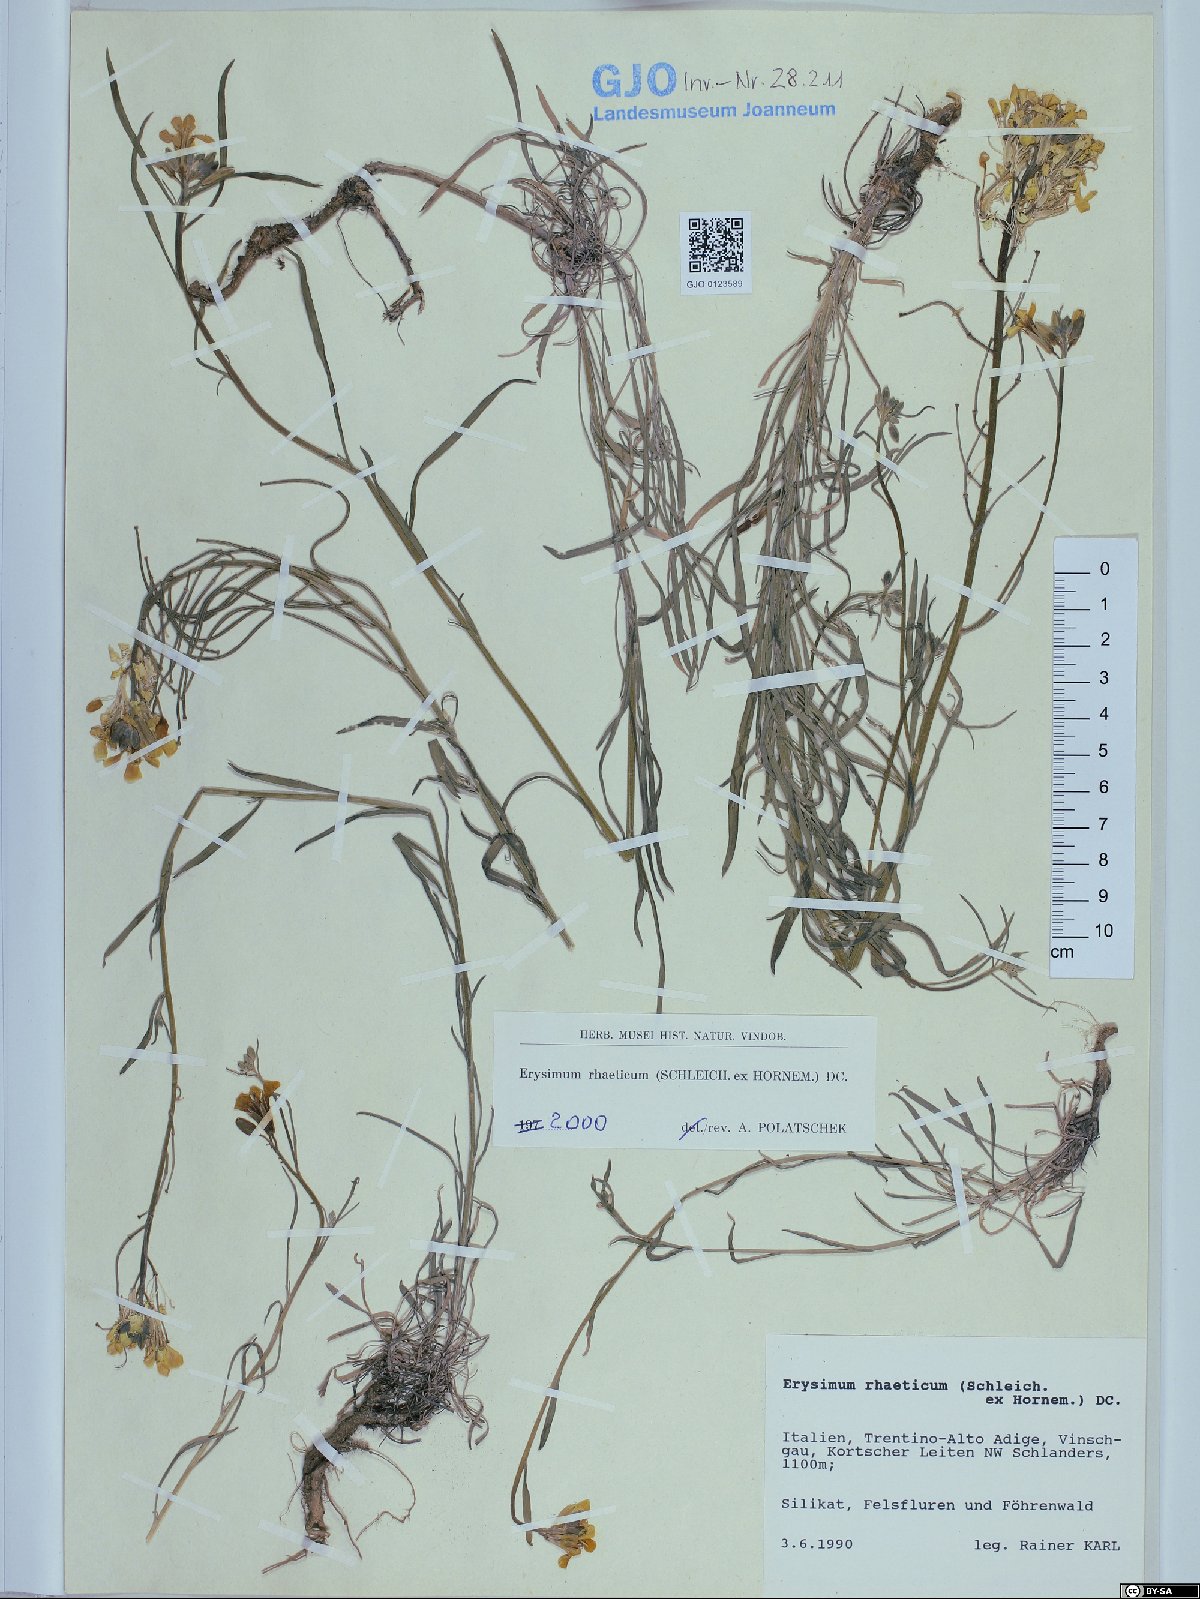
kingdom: Plantae
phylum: Tracheophyta
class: Magnoliopsida
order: Brassicales
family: Brassicaceae
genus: Erysimum
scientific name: Erysimum rhaeticum
